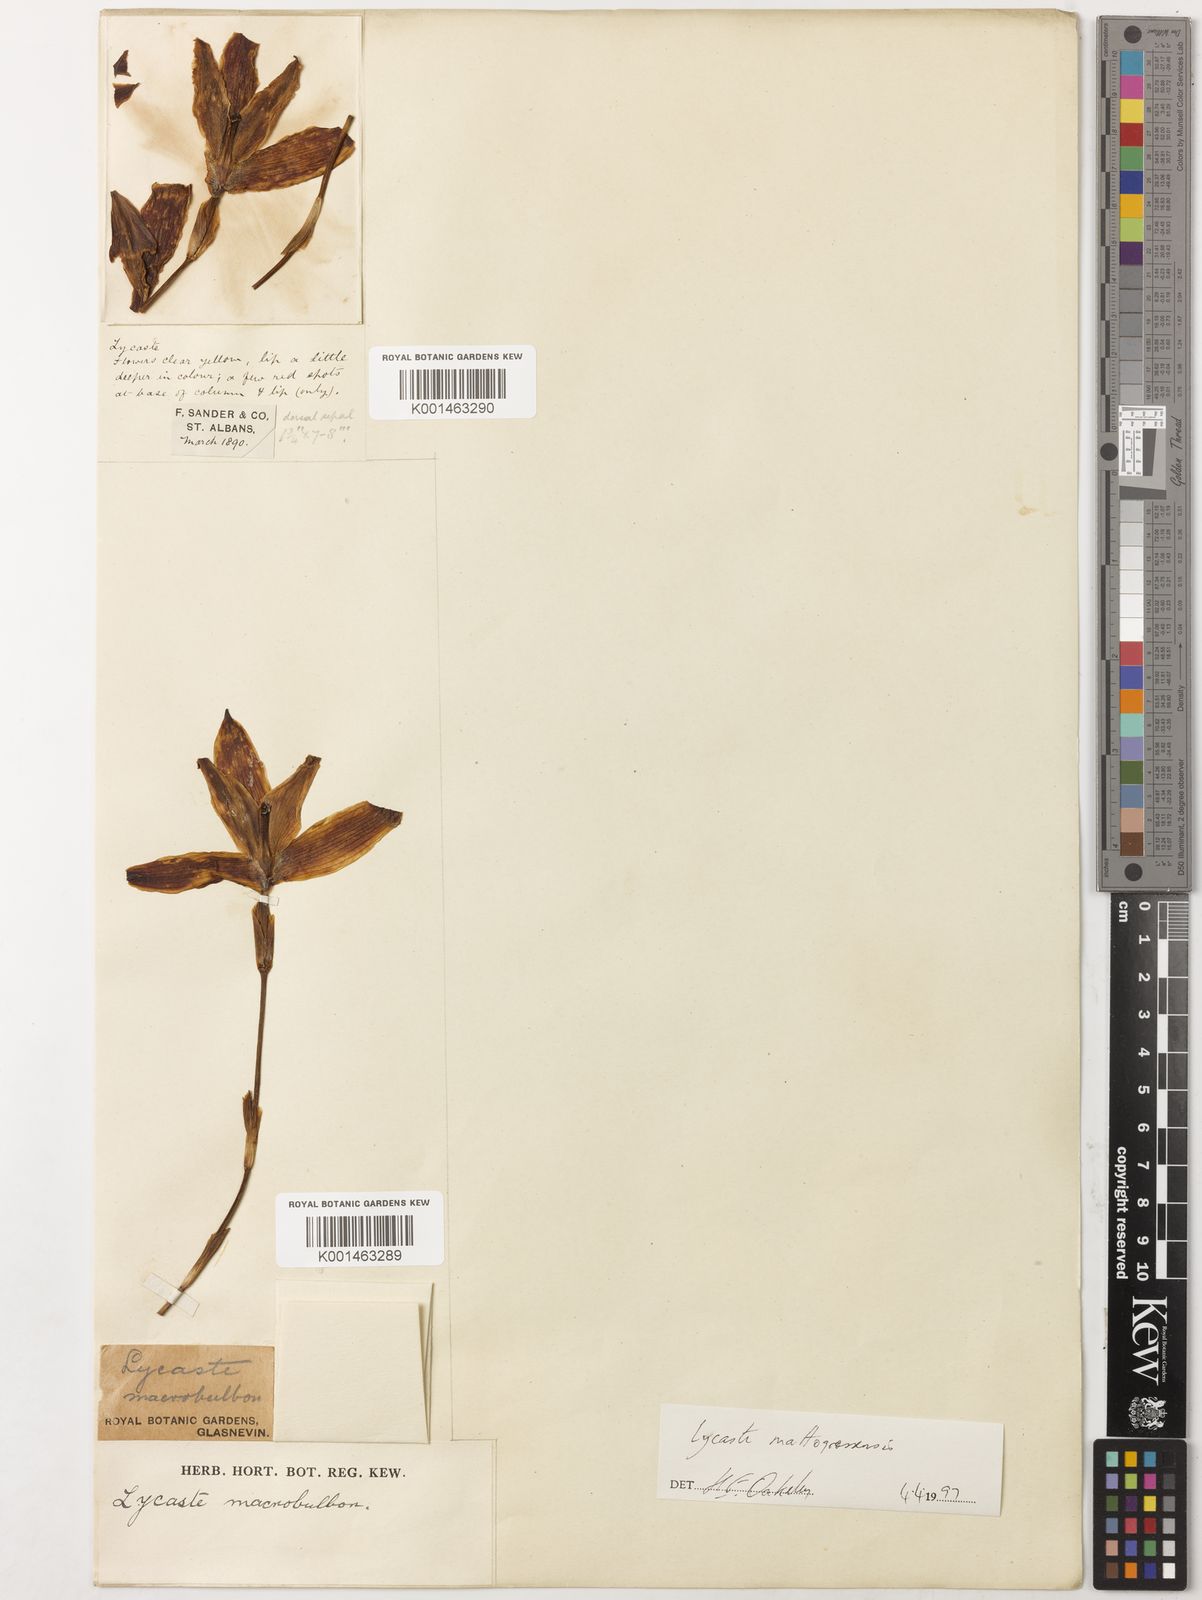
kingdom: Plantae
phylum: Tracheophyta
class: Liliopsida
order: Asparagales
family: Orchidaceae
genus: Lycaste
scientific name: Lycaste macrobulbon
